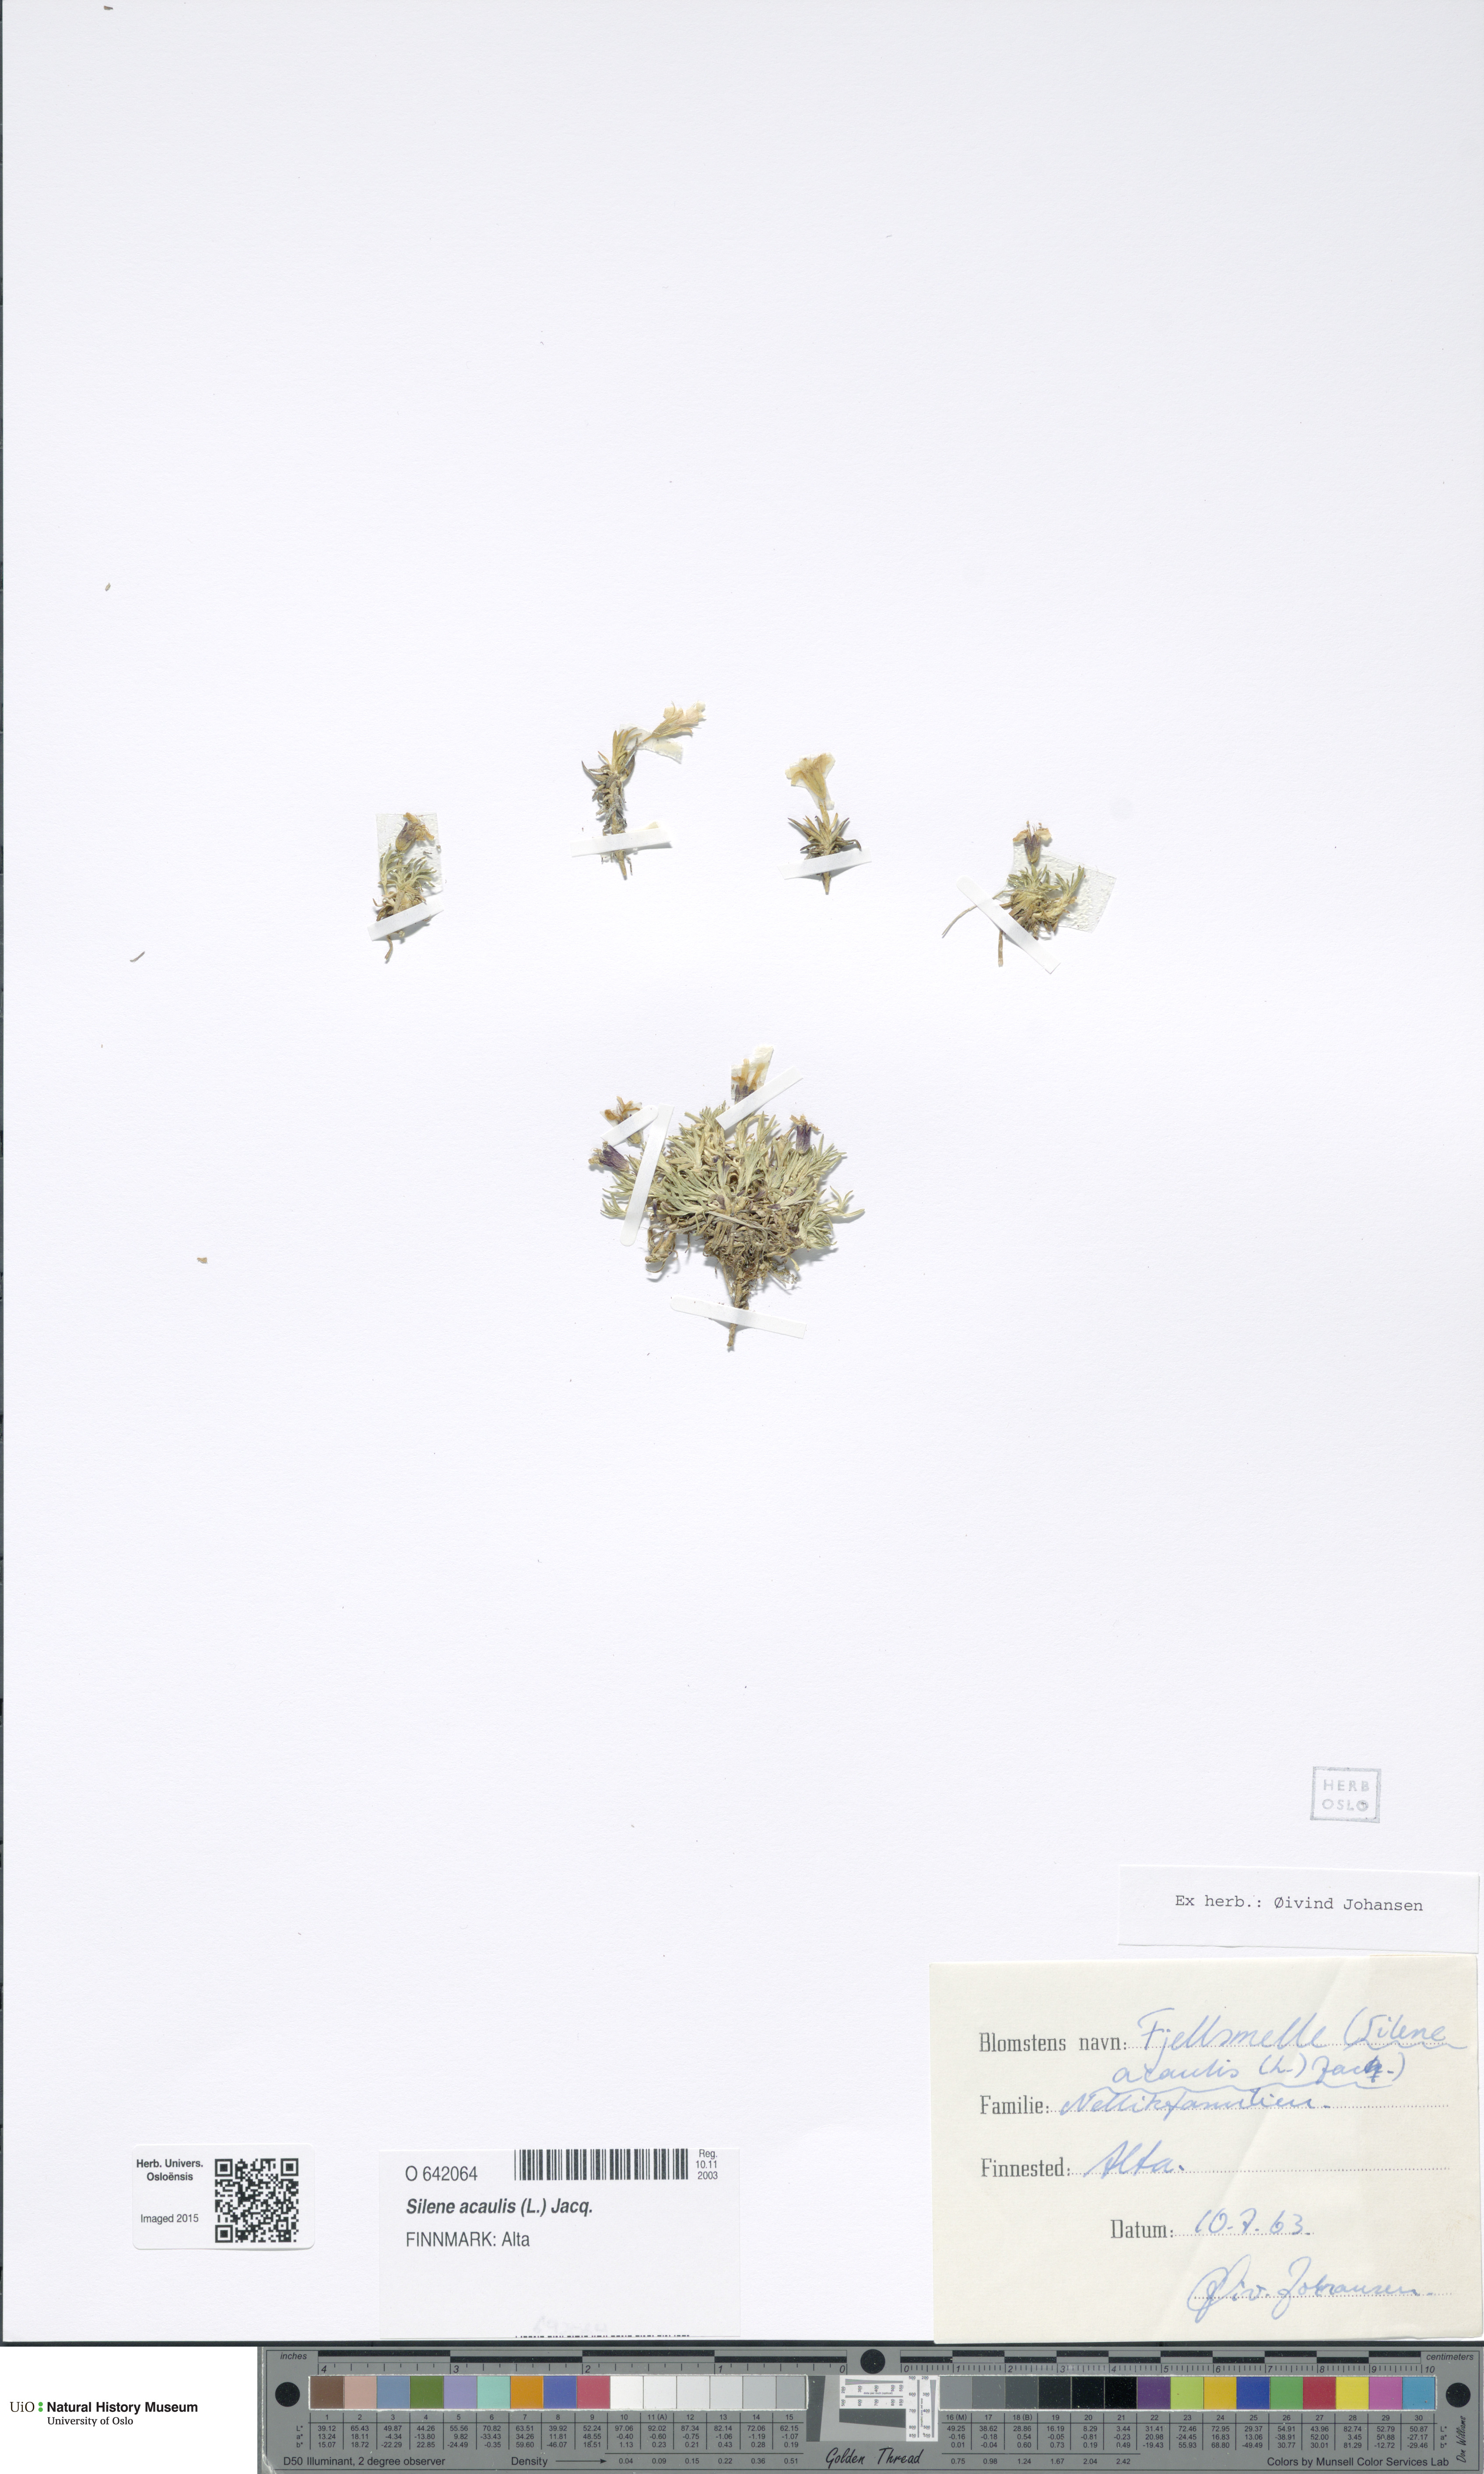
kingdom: Plantae
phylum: Tracheophyta
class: Magnoliopsida
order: Caryophyllales
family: Caryophyllaceae
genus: Silene
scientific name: Silene acaulis
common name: Moss campion
